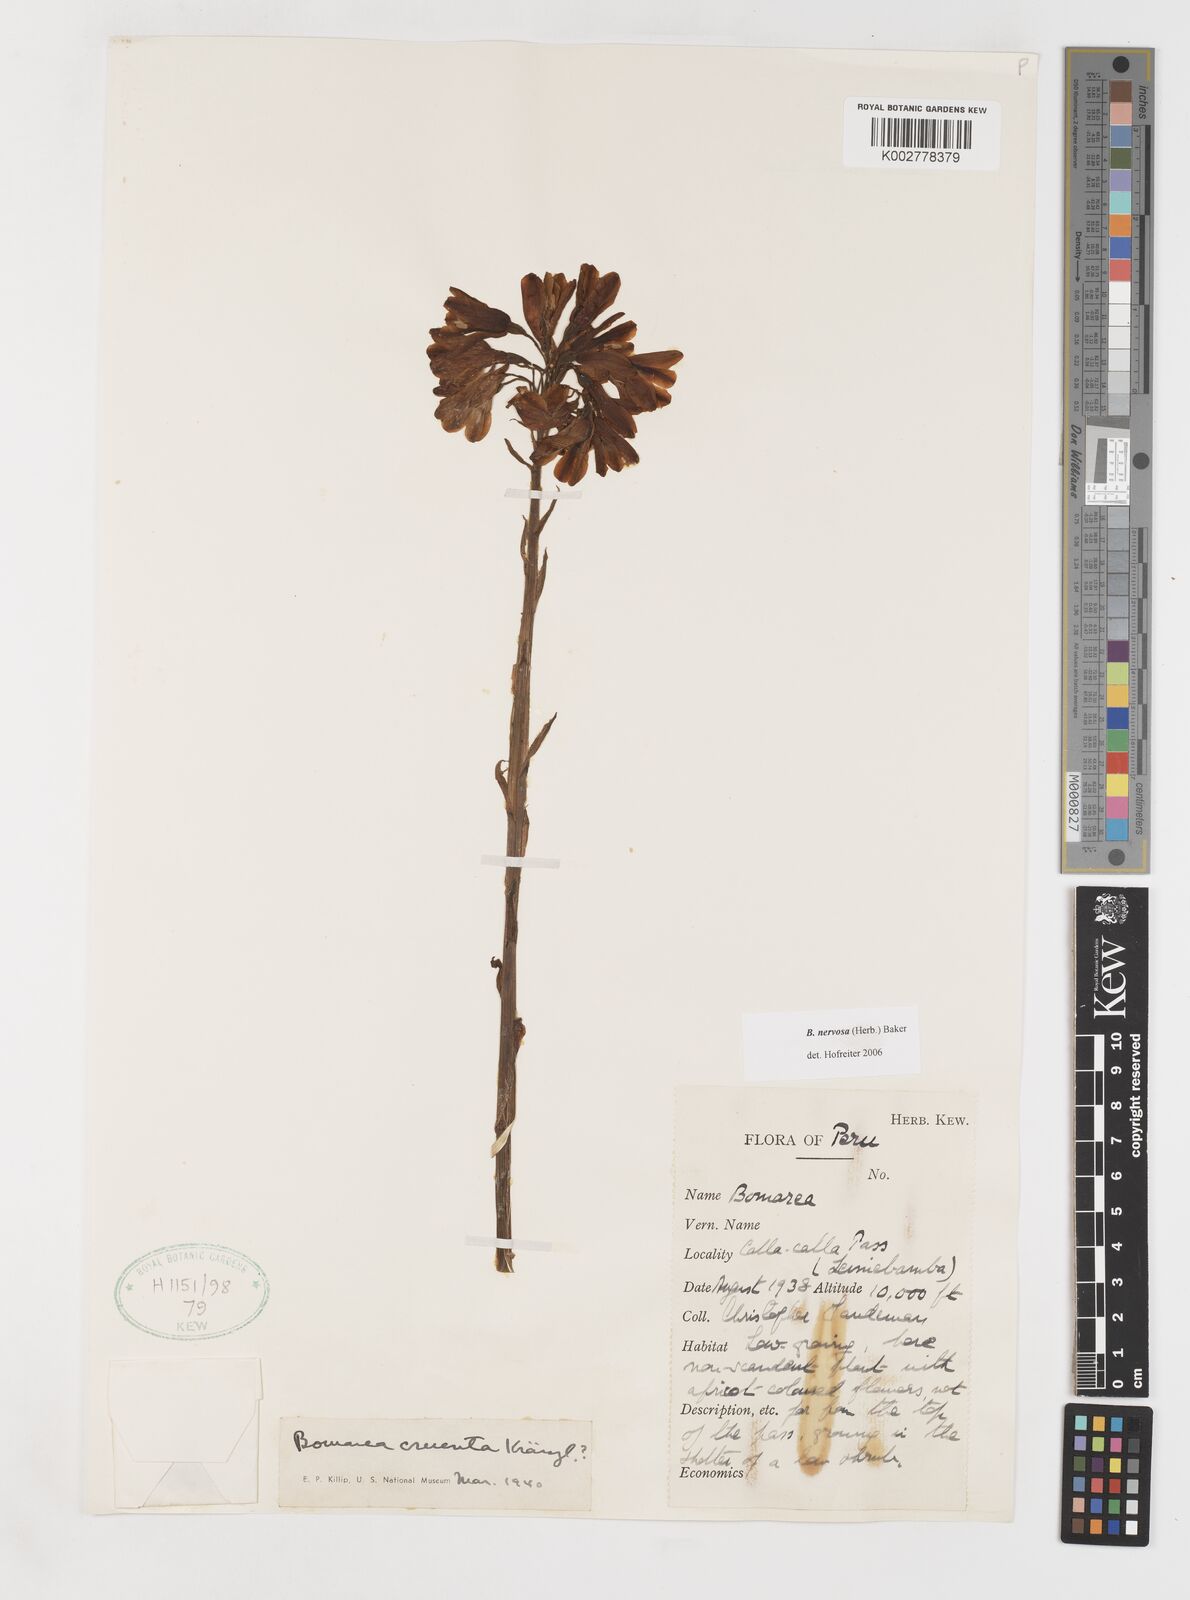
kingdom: Plantae
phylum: Tracheophyta
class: Liliopsida
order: Liliales
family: Alstroemeriaceae
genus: Bomarea
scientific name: Bomarea nervosa
